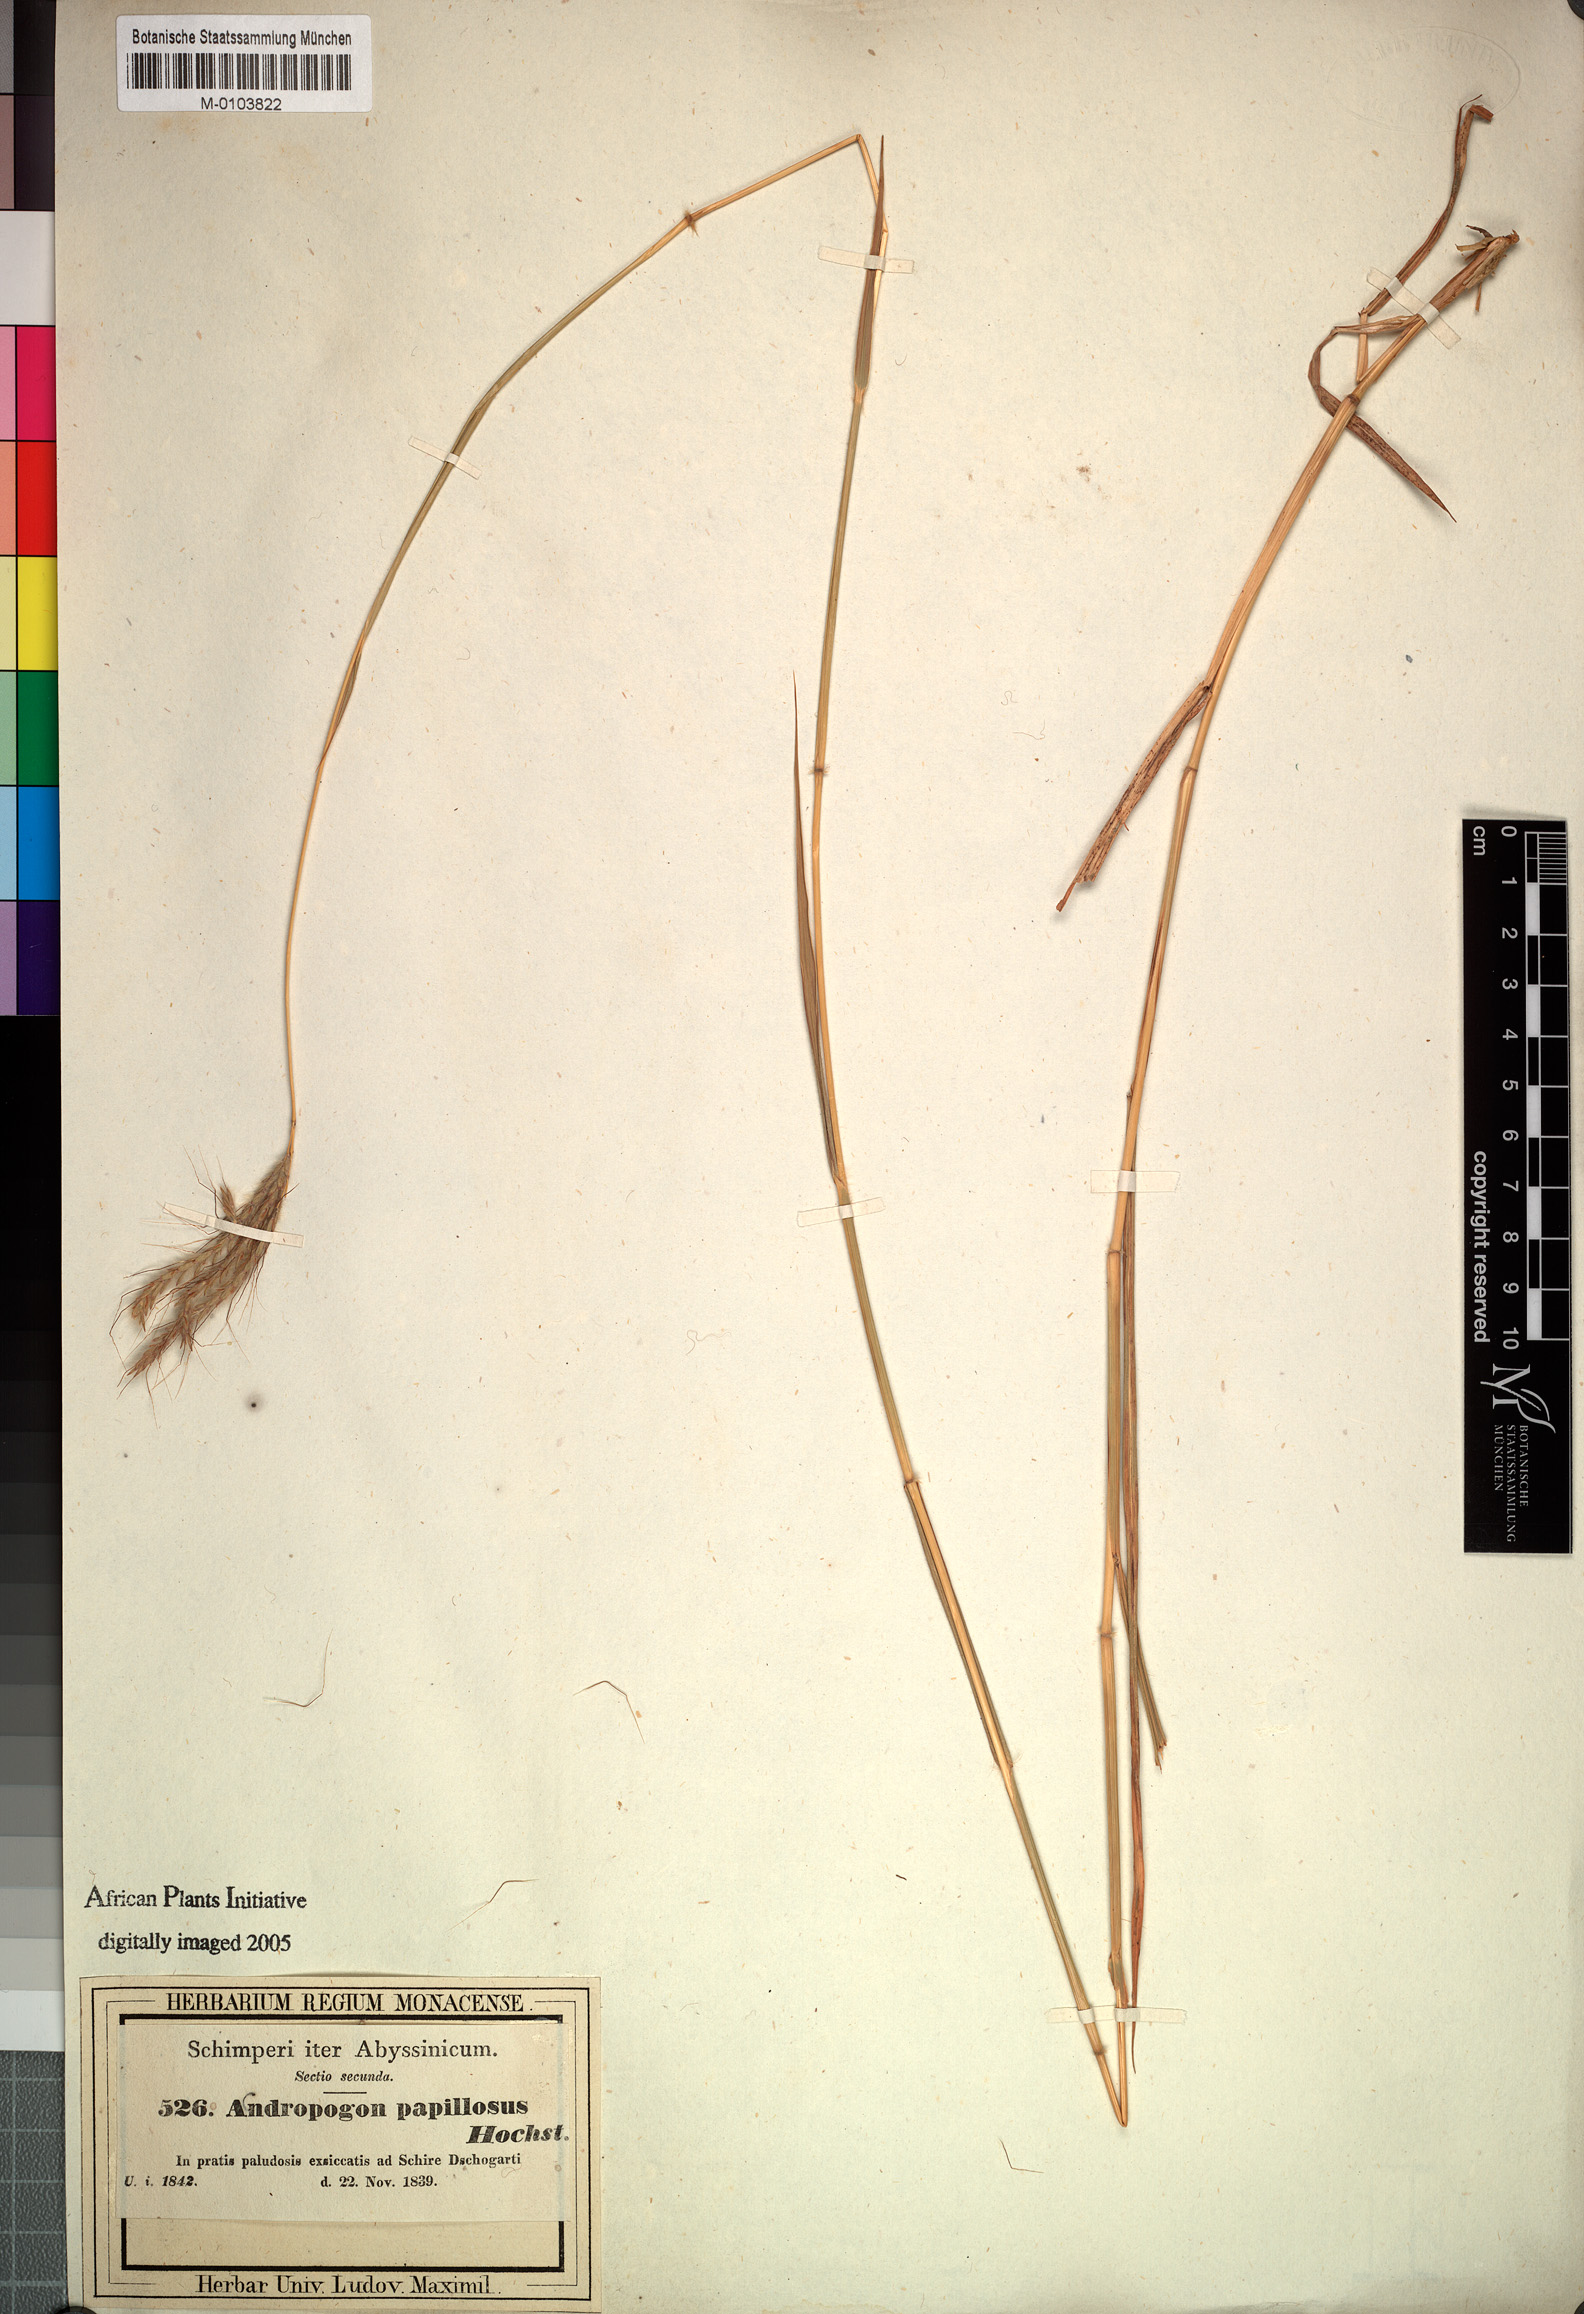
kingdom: Plantae
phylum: Tracheophyta
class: Liliopsida
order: Poales
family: Poaceae
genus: Dichanthium
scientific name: Dichanthium annulatum
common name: Kleberg's bluestem
